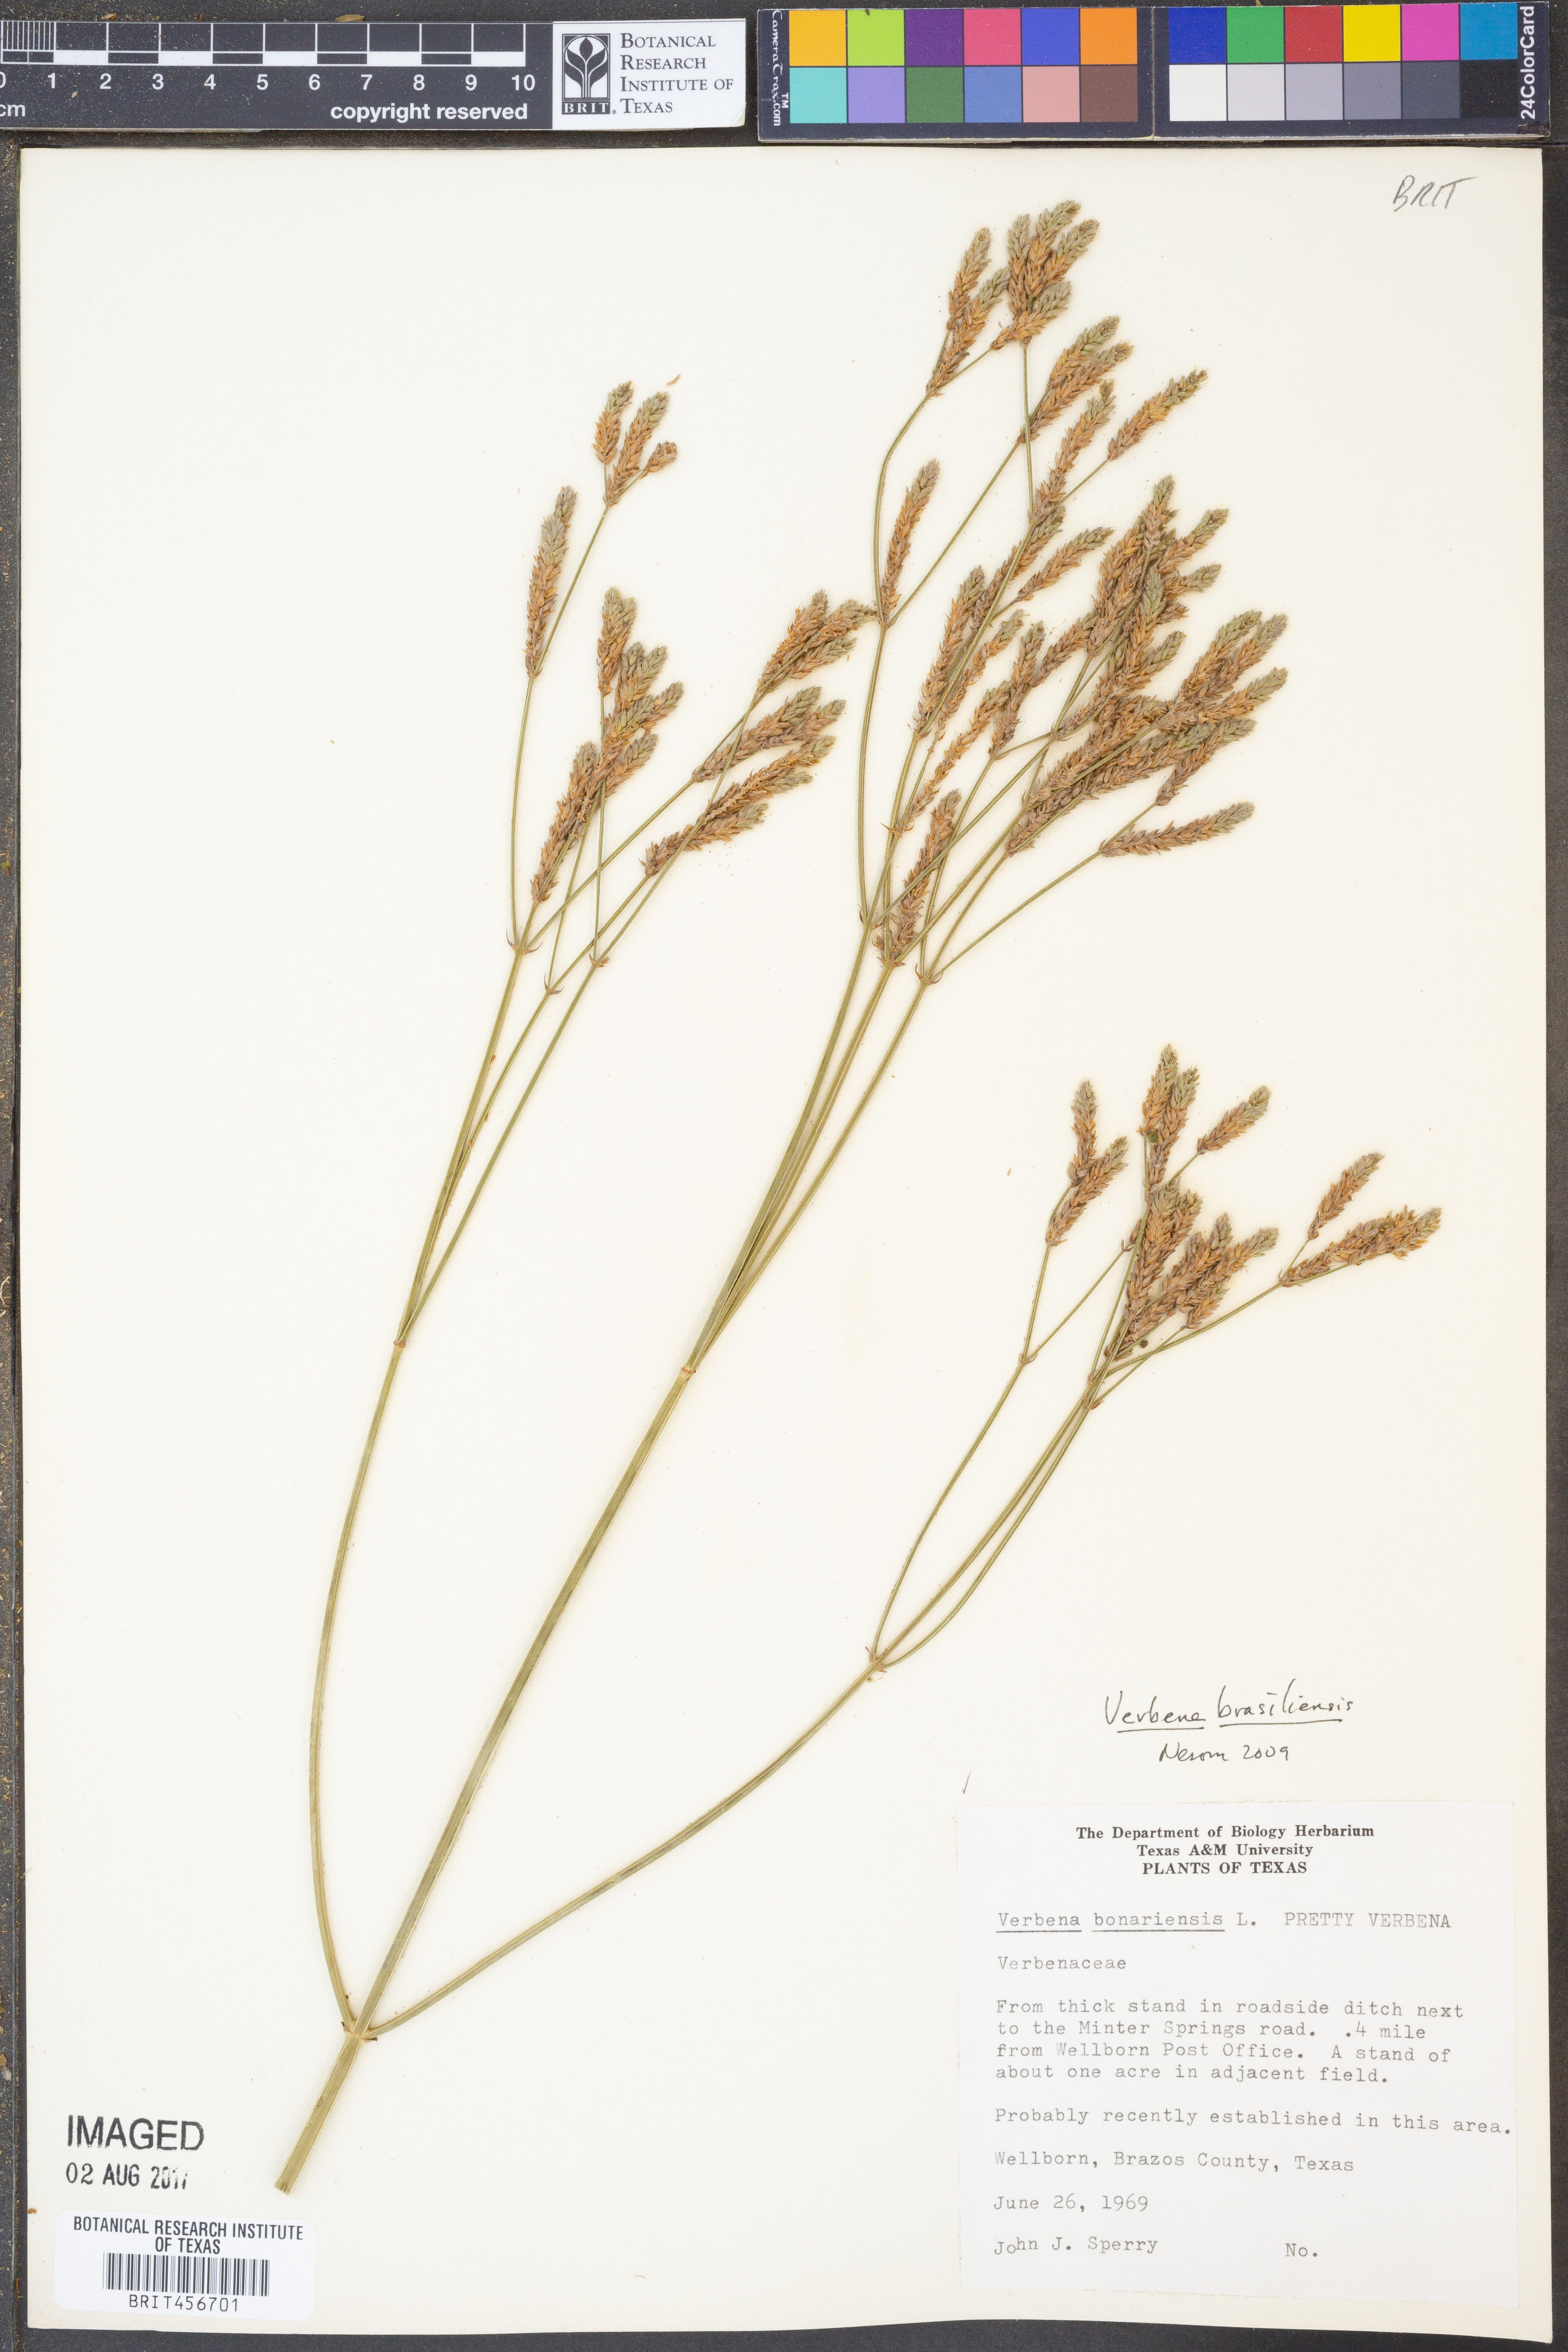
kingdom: Plantae
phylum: Tracheophyta
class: Magnoliopsida
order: Lamiales
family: Verbenaceae
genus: Verbena
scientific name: Verbena brasiliensis
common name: Brazilian vervain
